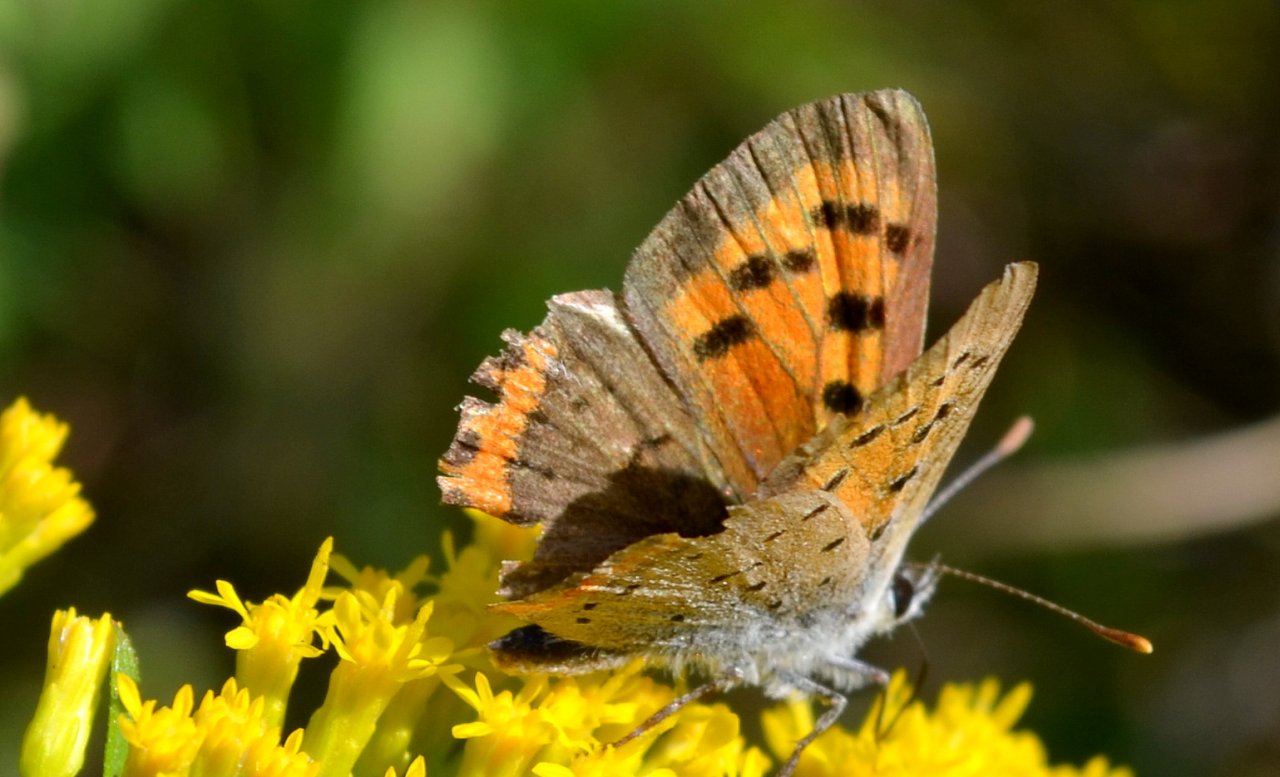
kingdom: Animalia
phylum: Arthropoda
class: Insecta
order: Lepidoptera
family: Lycaenidae
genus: Lycaena
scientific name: Lycaena phlaeas
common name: American Copper
